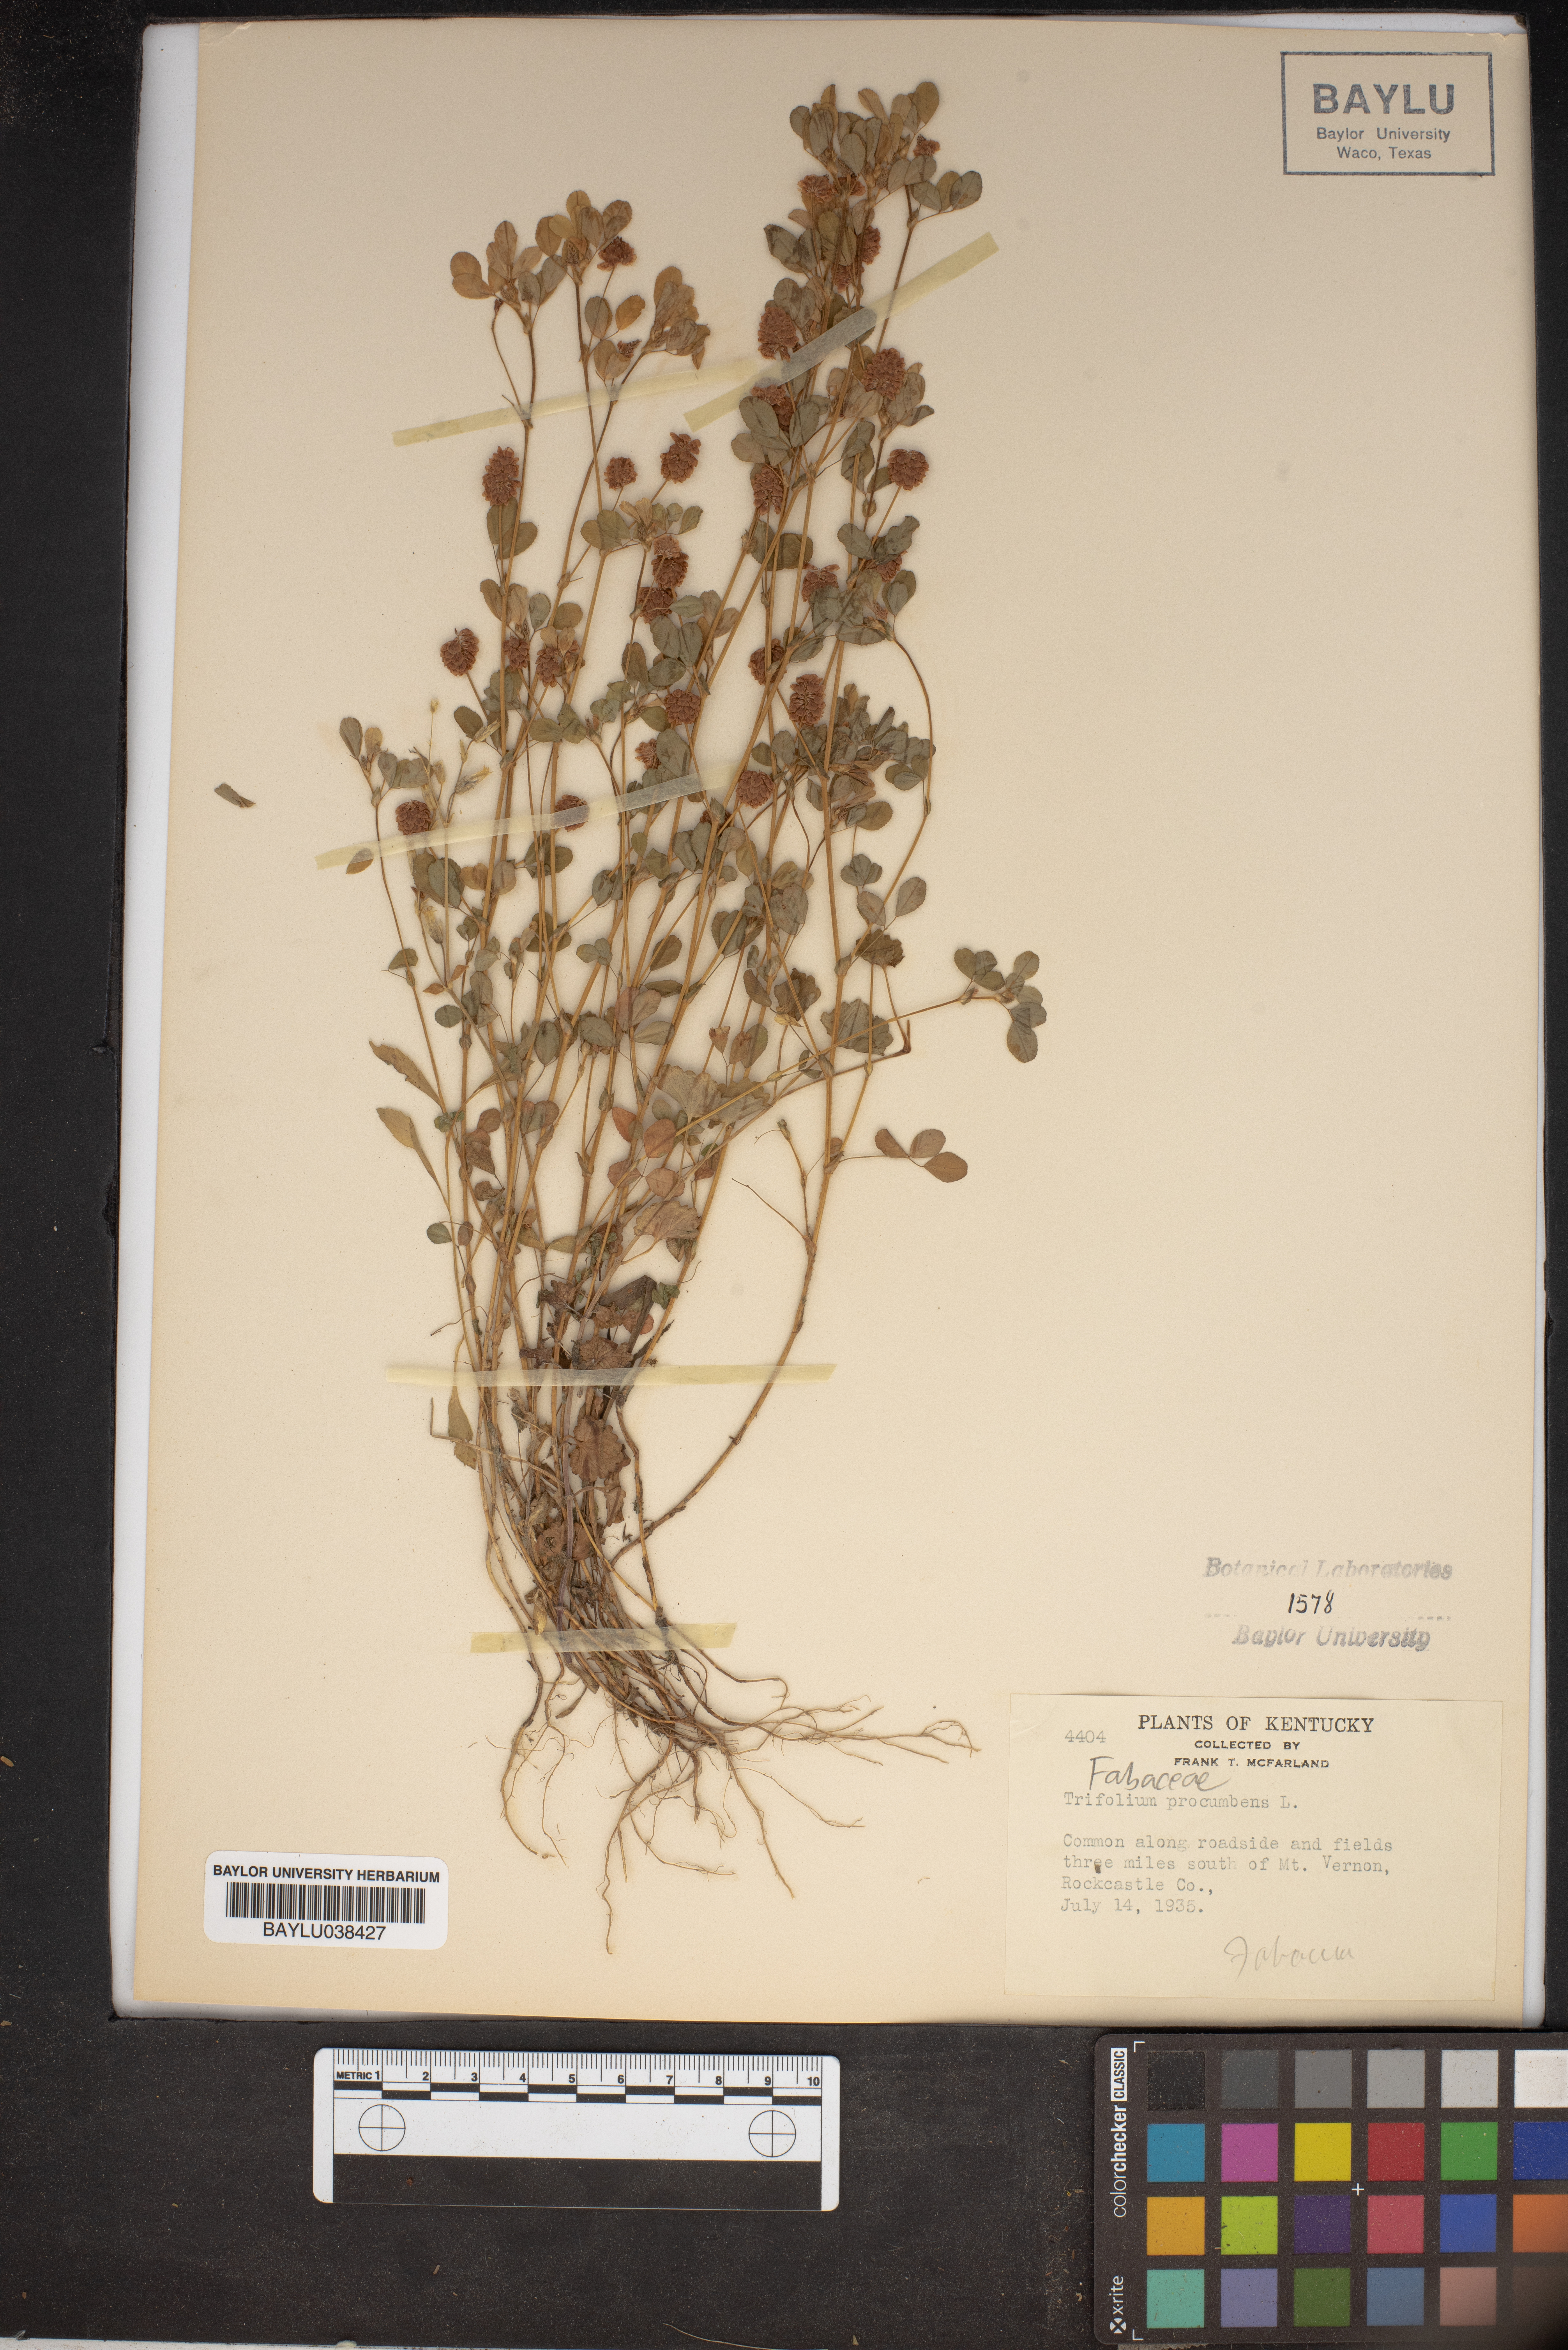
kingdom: Plantae
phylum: Tracheophyta
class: Magnoliopsida
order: Fabales
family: Fabaceae
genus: Trifolium
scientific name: Trifolium campestre
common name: Field clover
